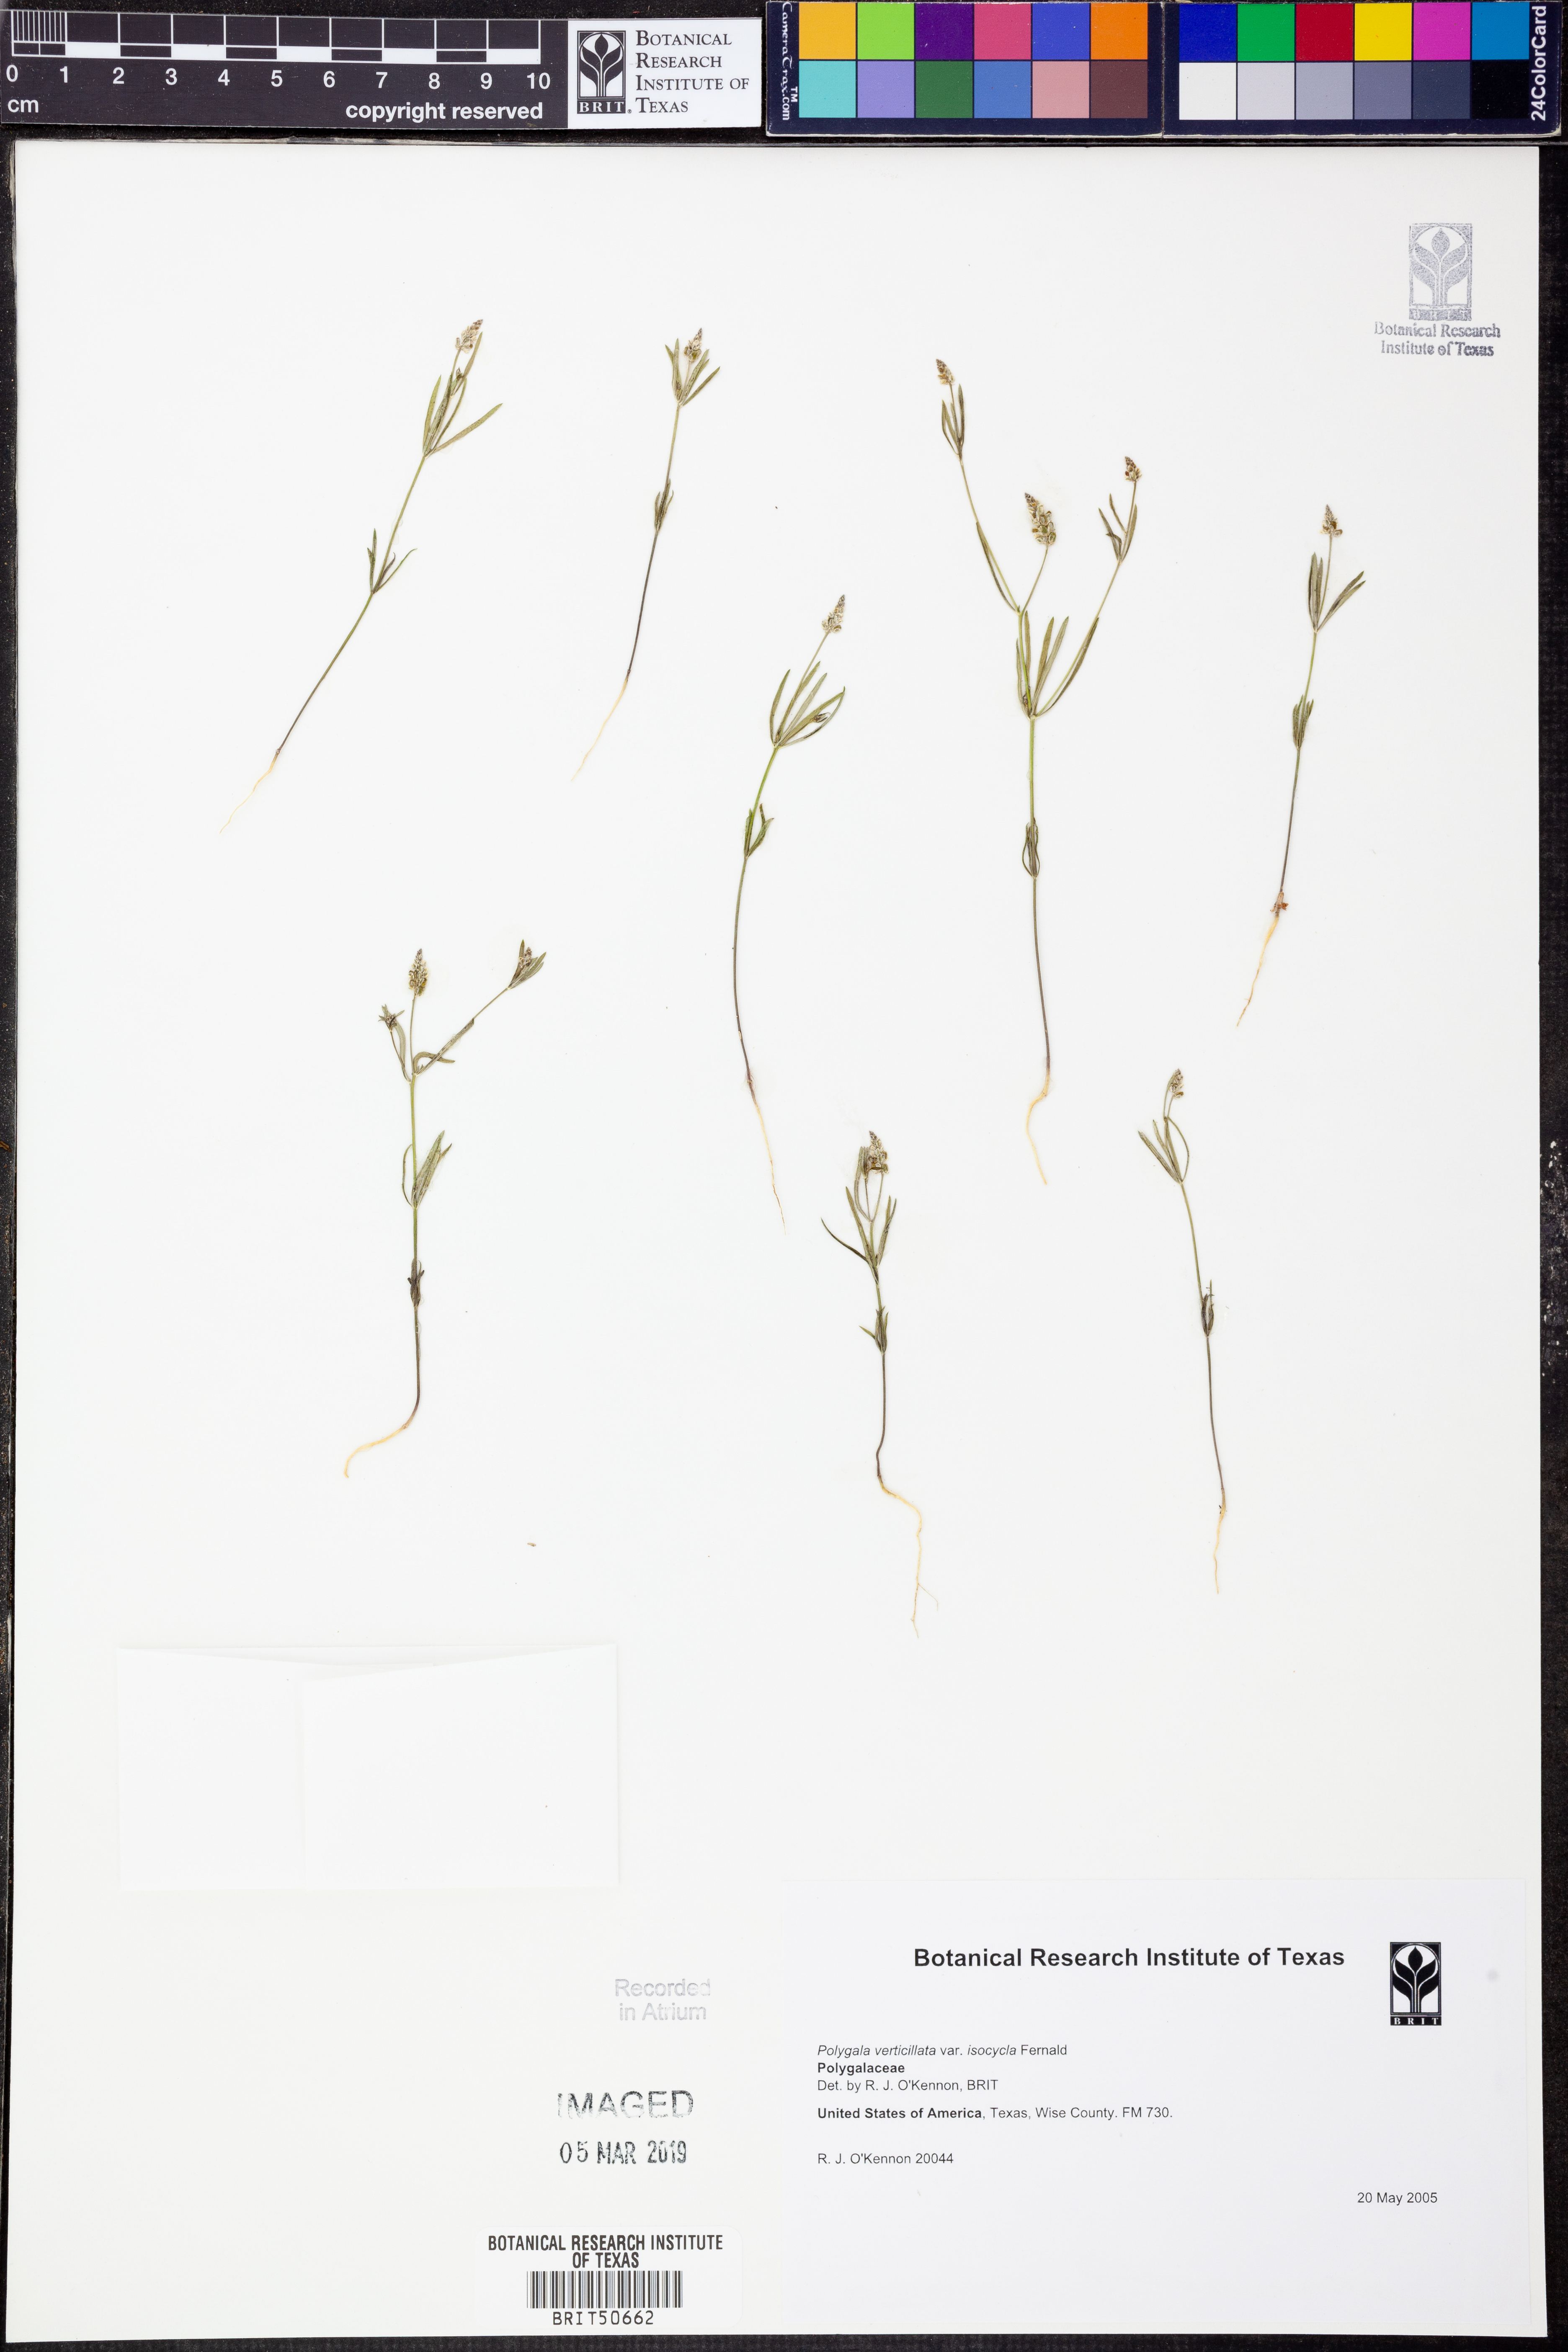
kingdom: Plantae
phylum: Tracheophyta
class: Magnoliopsida
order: Fabales
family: Polygalaceae
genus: Polygala
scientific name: Polygala verticillata
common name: Whorl milkwort
